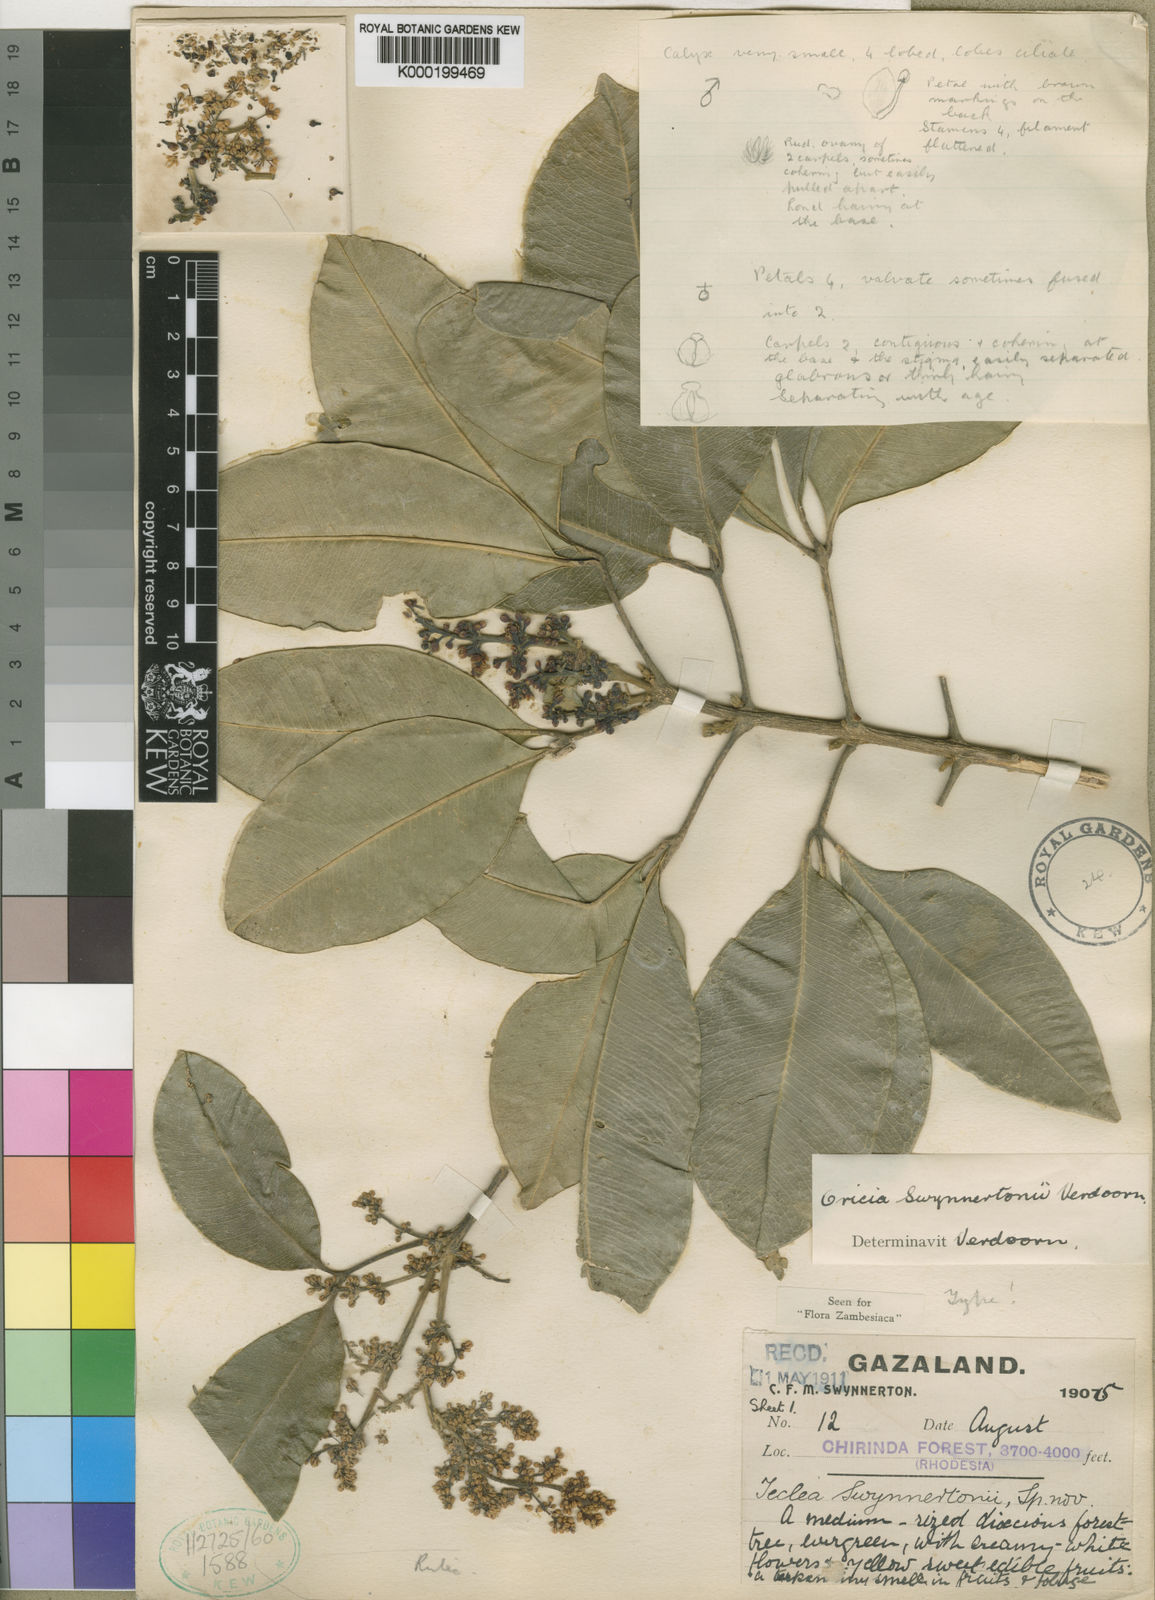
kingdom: Plantae
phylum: Tracheophyta
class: Magnoliopsida
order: Sapindales
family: Rutaceae
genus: Vepris
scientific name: Vepris bachmannii
